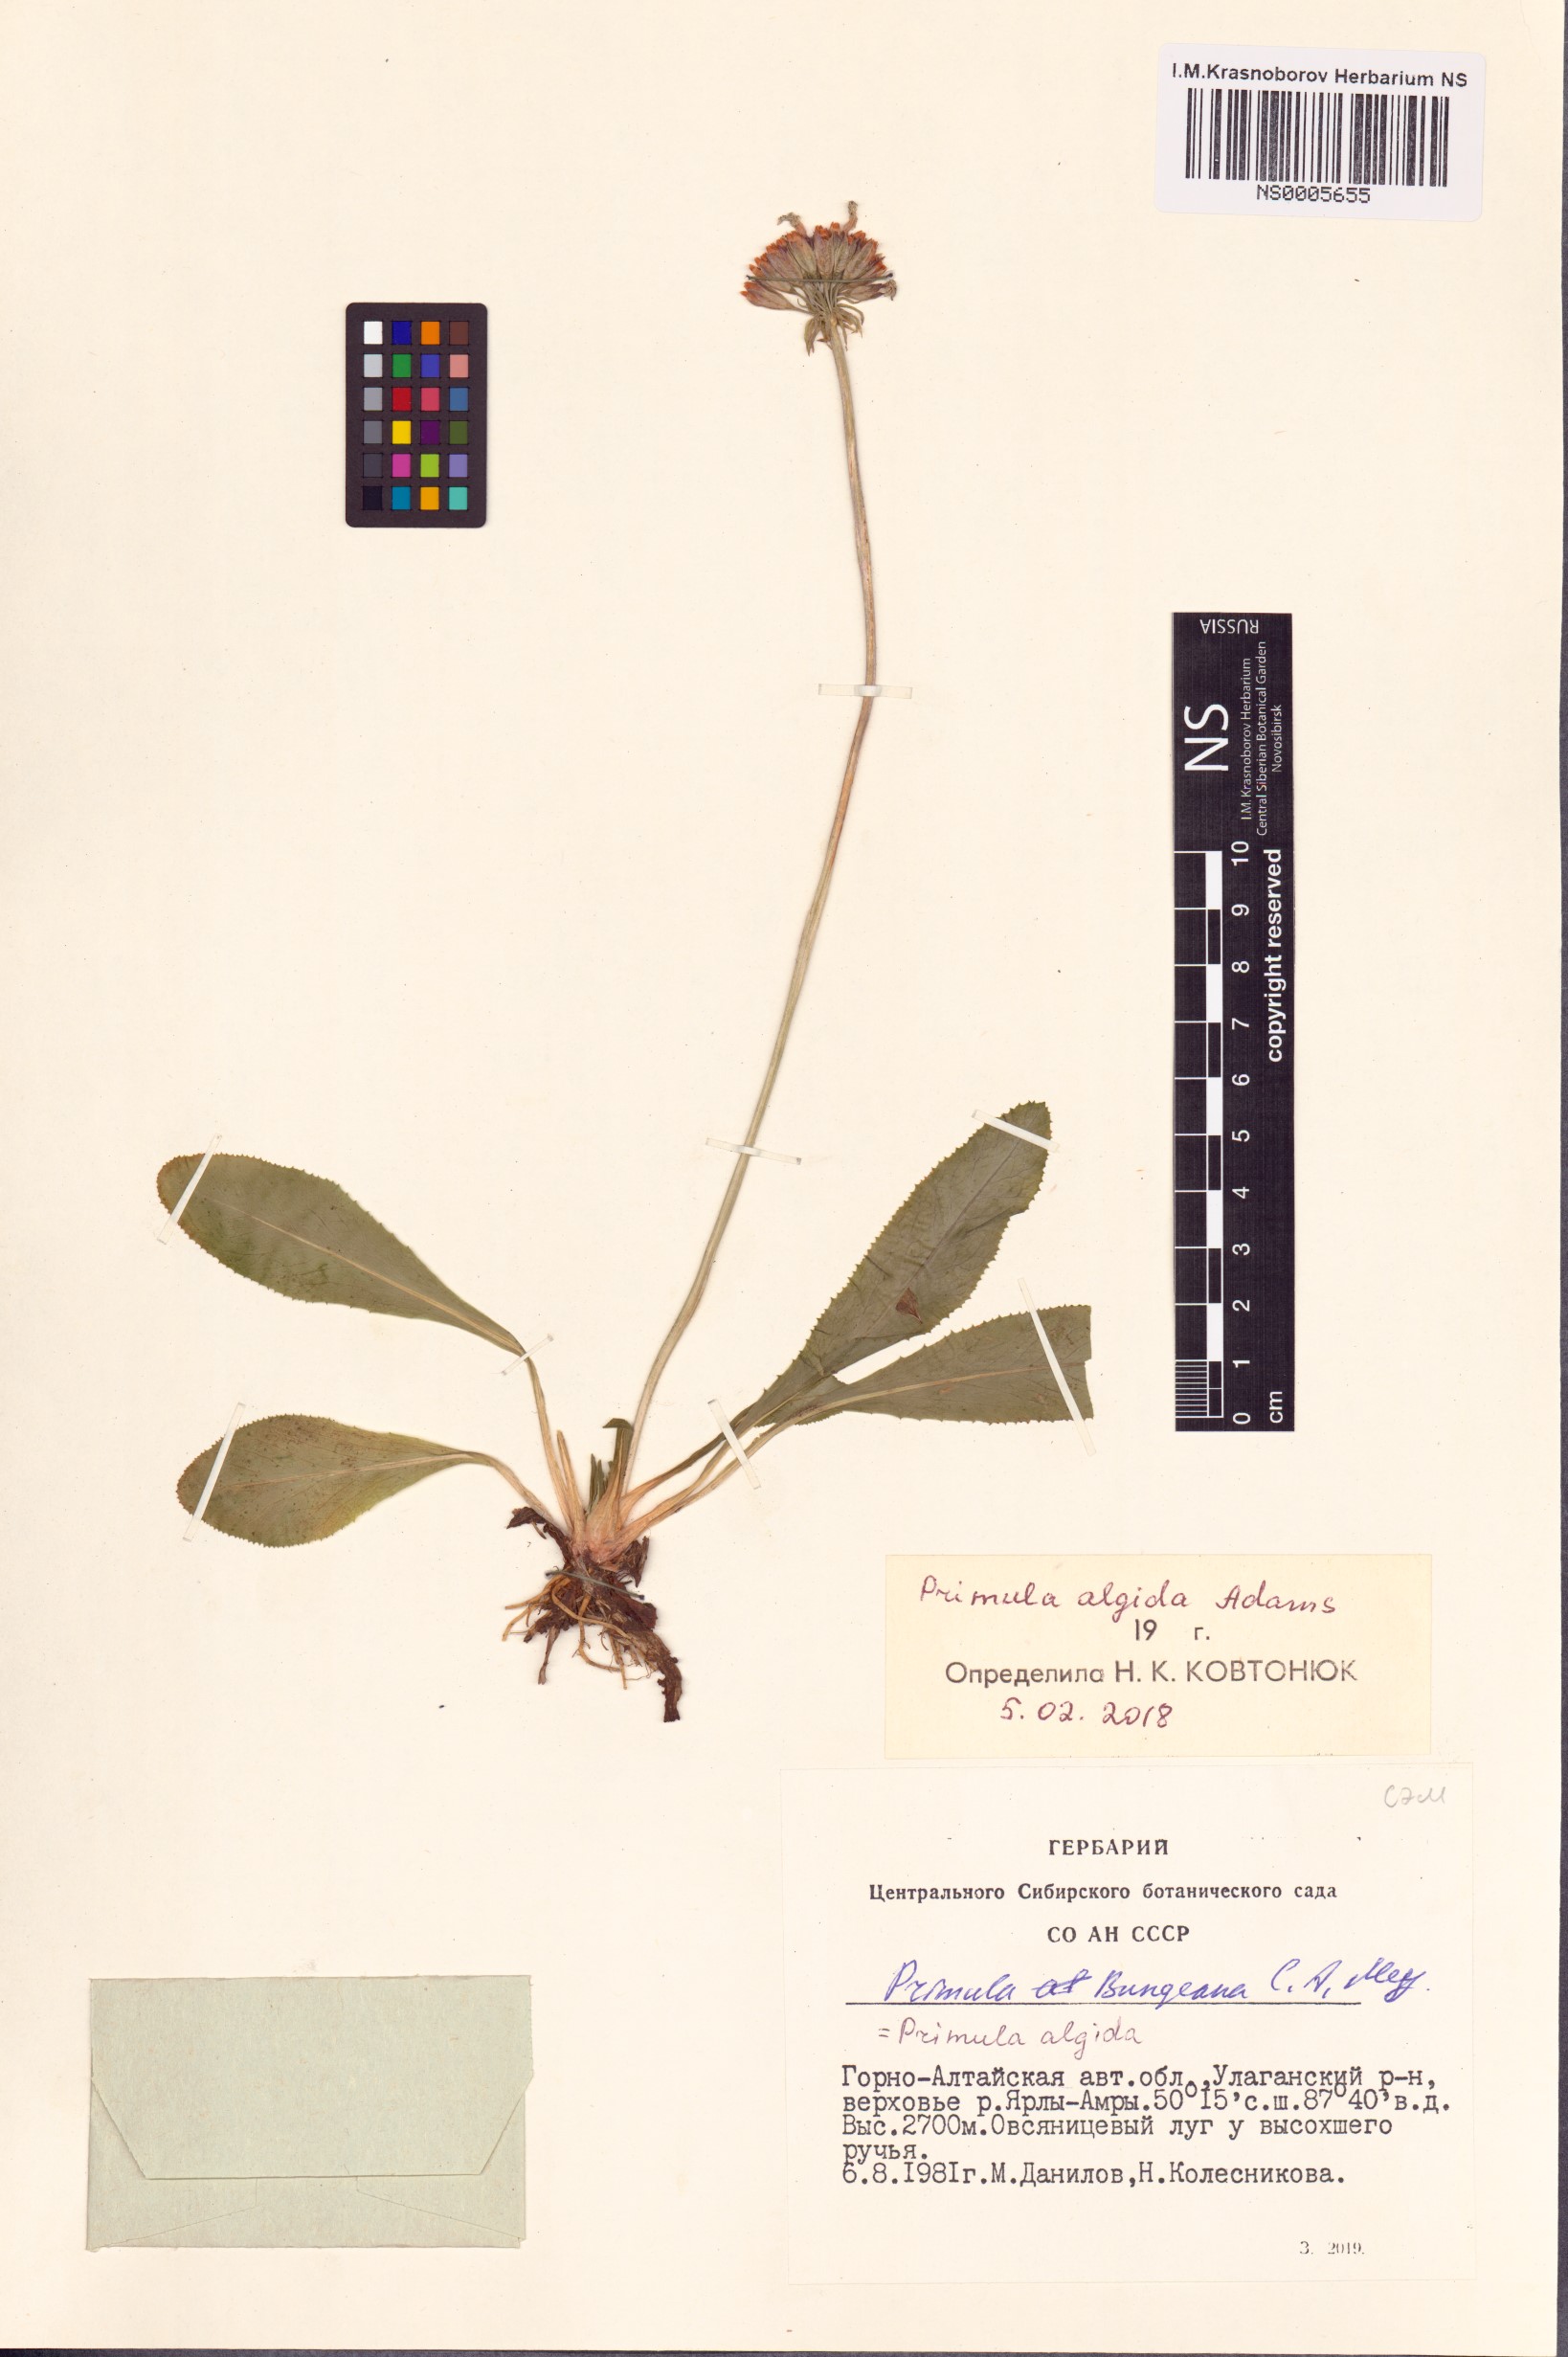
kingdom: Plantae
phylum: Tracheophyta
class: Magnoliopsida
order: Ericales
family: Primulaceae
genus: Primula
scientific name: Primula algida
